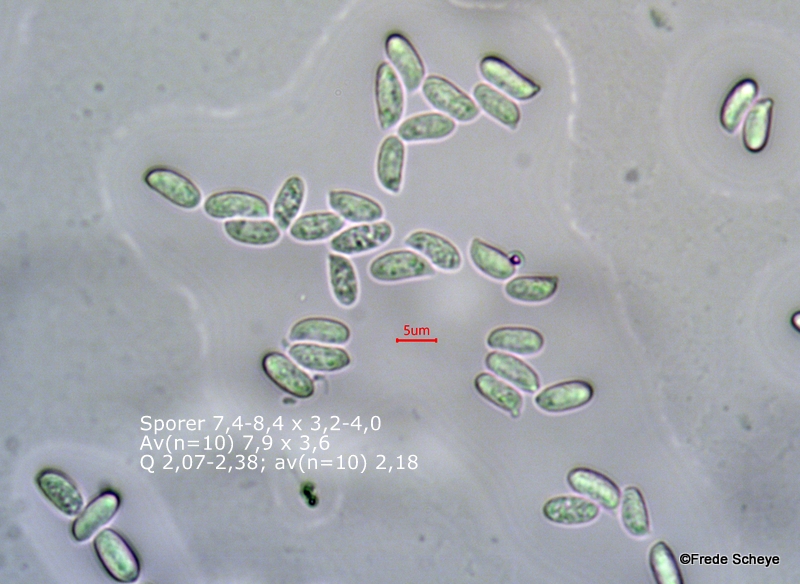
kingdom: Fungi
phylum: Basidiomycota
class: Agaricomycetes
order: Agaricales
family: Physalacriaceae
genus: Flammulina
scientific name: Flammulina velutipes
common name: gul fløjlsfod
